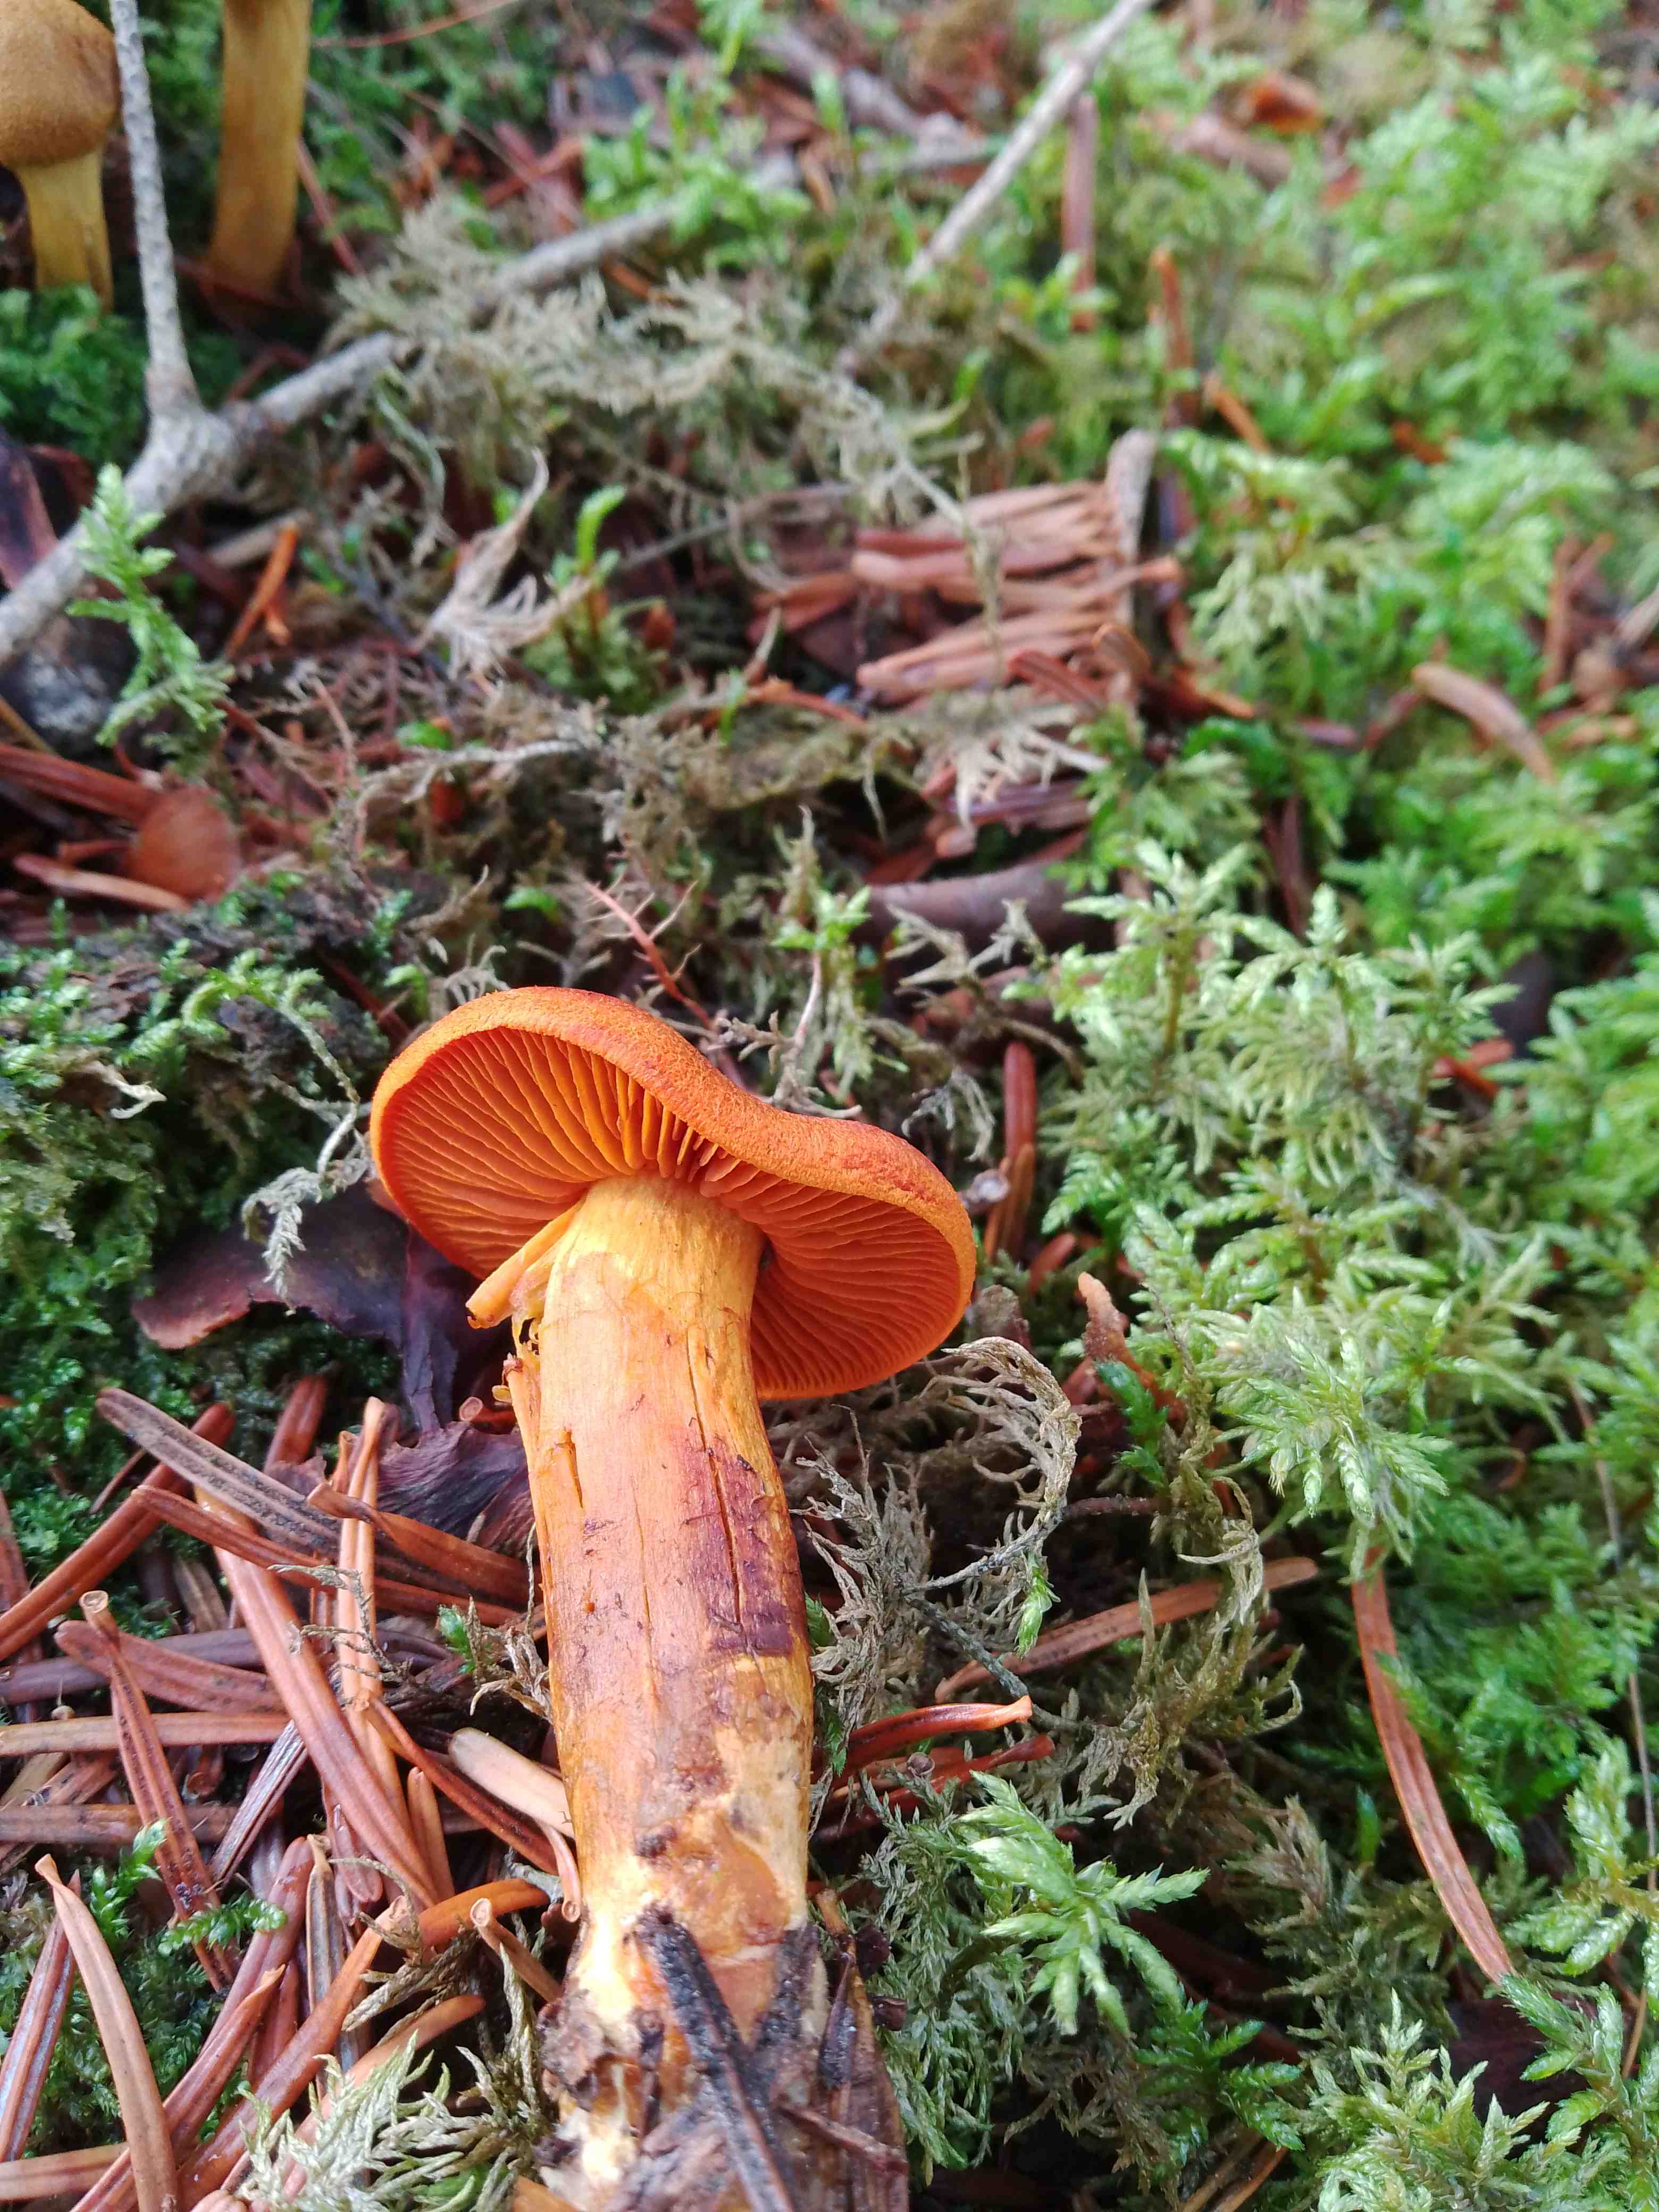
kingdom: Fungi
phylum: Basidiomycota
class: Agaricomycetes
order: Agaricales
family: Cortinariaceae
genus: Cortinarius
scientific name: Cortinarius malicorius
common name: grønkødet slørhat
